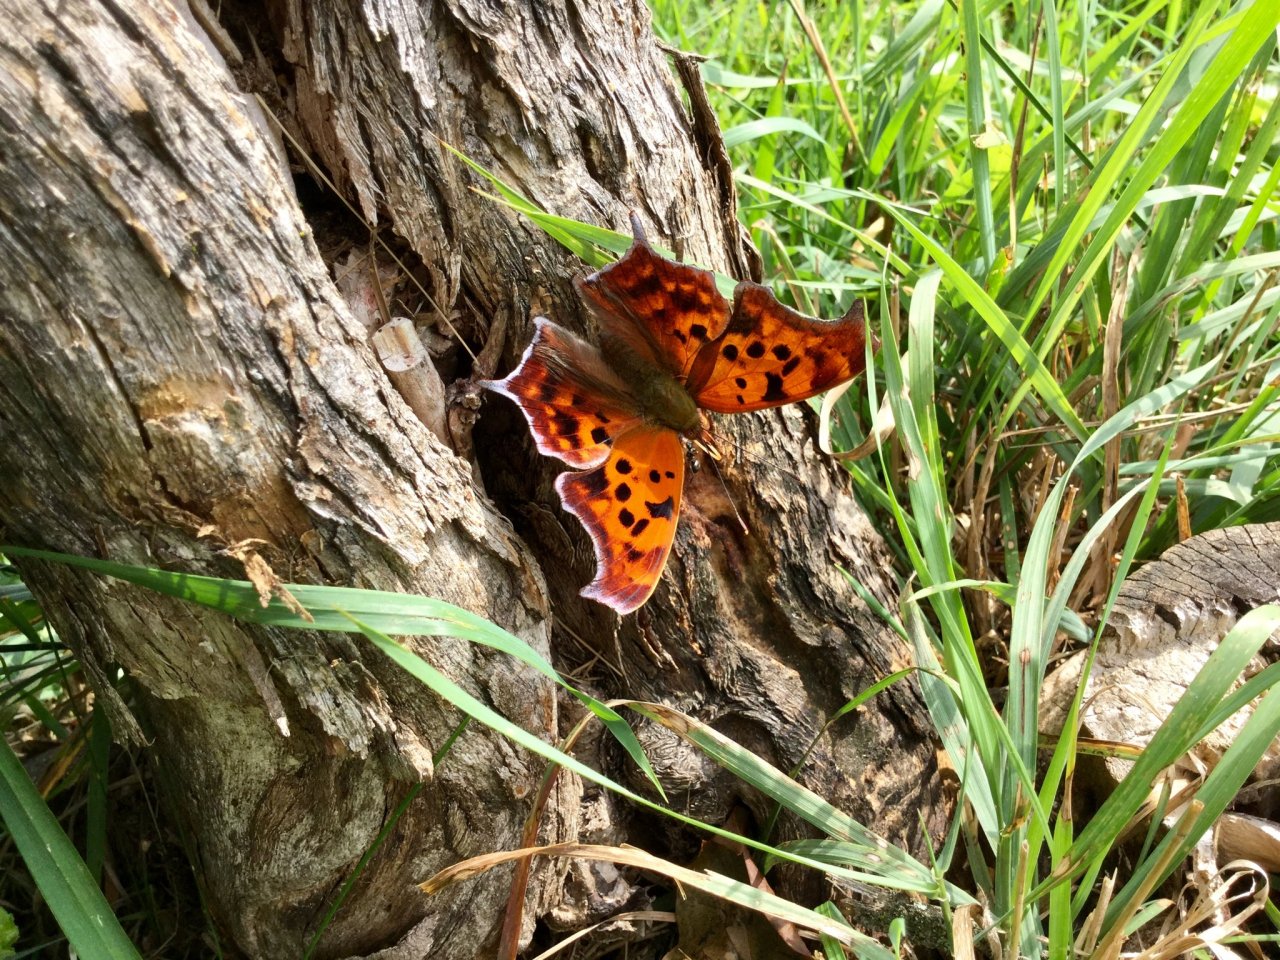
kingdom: Animalia
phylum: Arthropoda
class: Insecta
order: Lepidoptera
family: Nymphalidae
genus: Polygonia
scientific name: Polygonia interrogationis
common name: Question Mark
